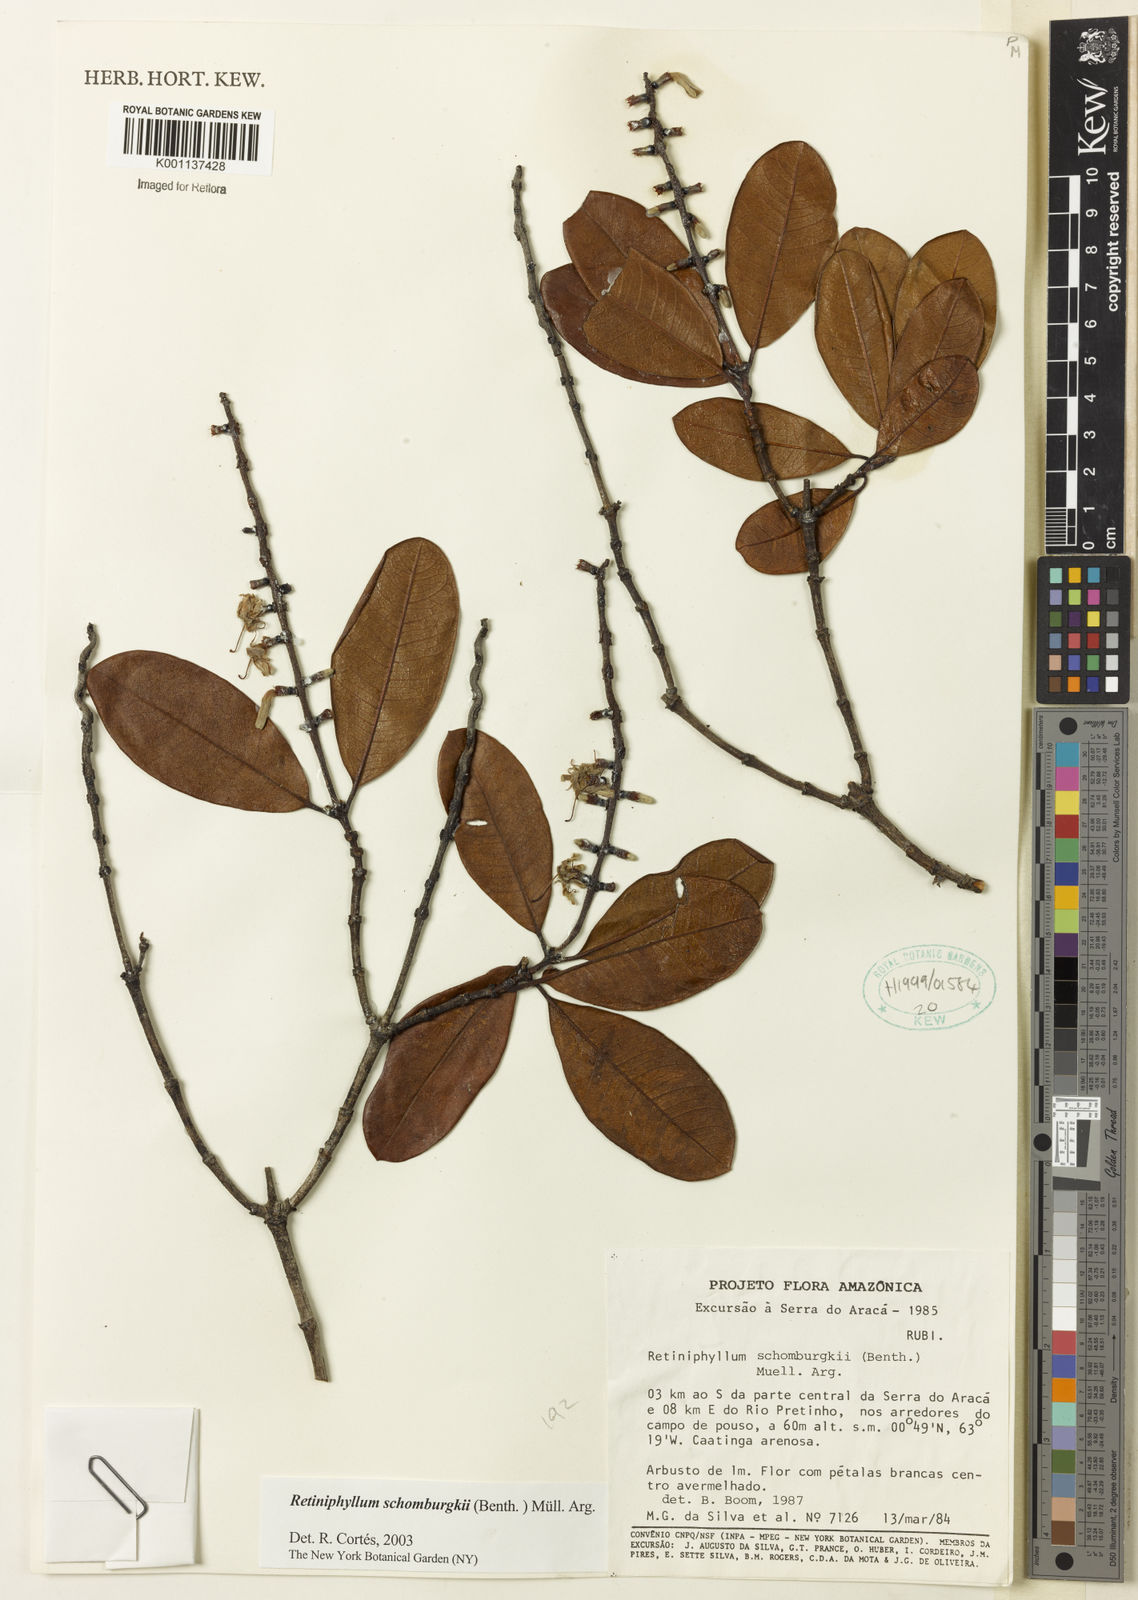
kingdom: Plantae
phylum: Tracheophyta
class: Magnoliopsida
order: Gentianales
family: Rubiaceae
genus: Retiniphyllum
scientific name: Retiniphyllum
